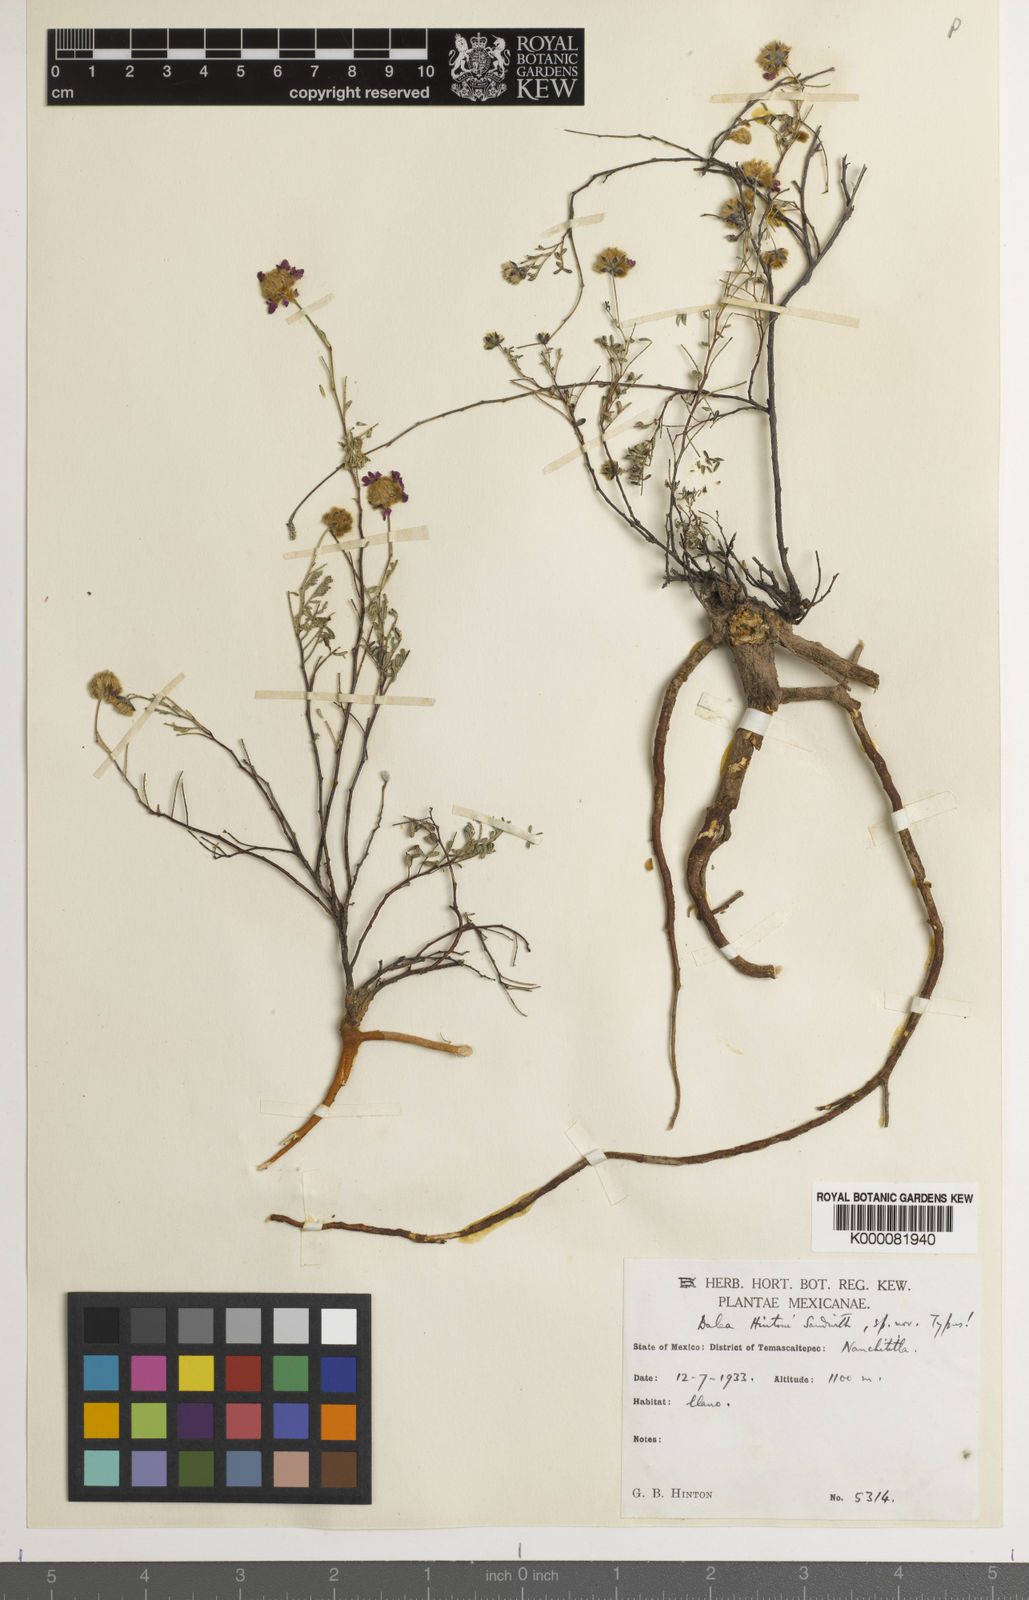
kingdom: Plantae
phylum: Tracheophyta
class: Magnoliopsida
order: Fabales
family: Fabaceae
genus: Dalea
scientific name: Dalea hintonii
